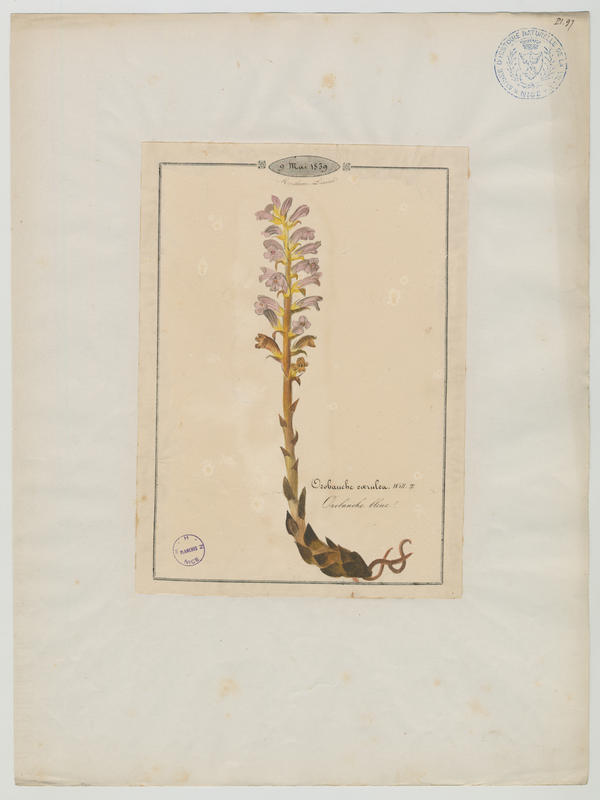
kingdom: Plantae
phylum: Tracheophyta
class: Magnoliopsida
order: Lamiales
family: Orobanchaceae
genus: Phelipanche
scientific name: Phelipanche purpurea
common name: Purple broomrape
